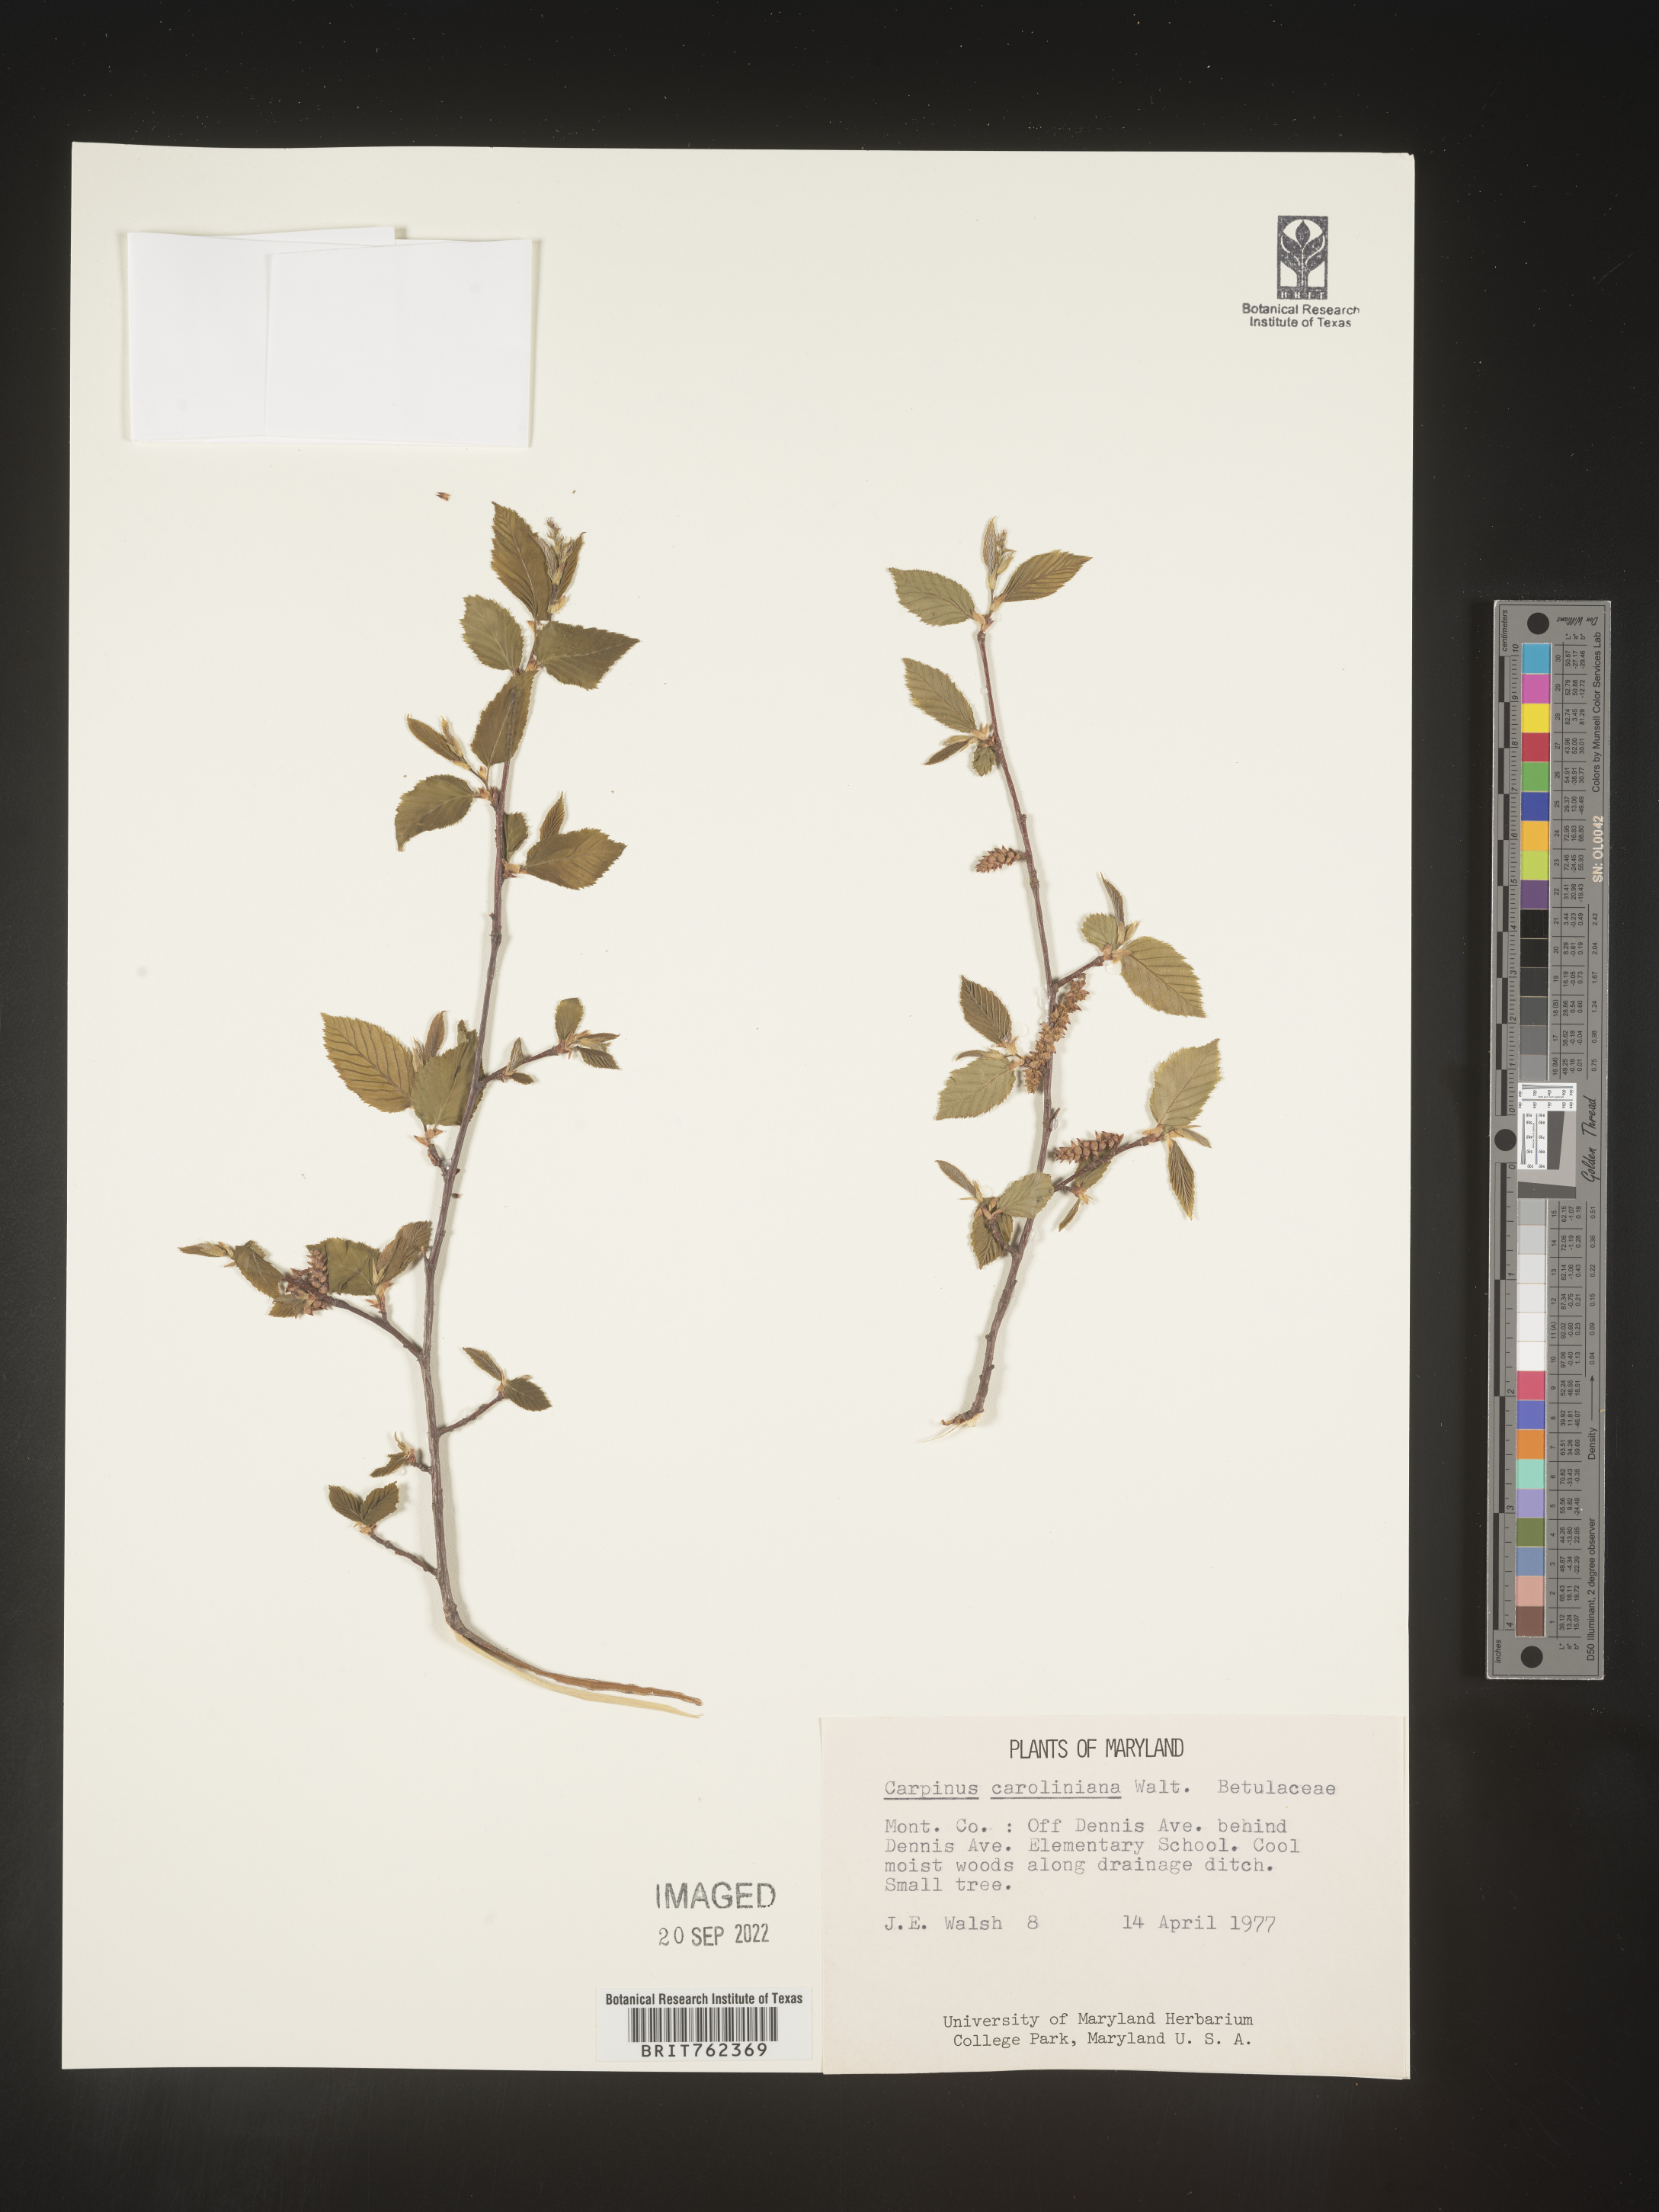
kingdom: Plantae
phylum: Tracheophyta
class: Magnoliopsida
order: Fagales
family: Betulaceae
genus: Carpinus
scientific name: Carpinus caroliniana
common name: American hornbeam
